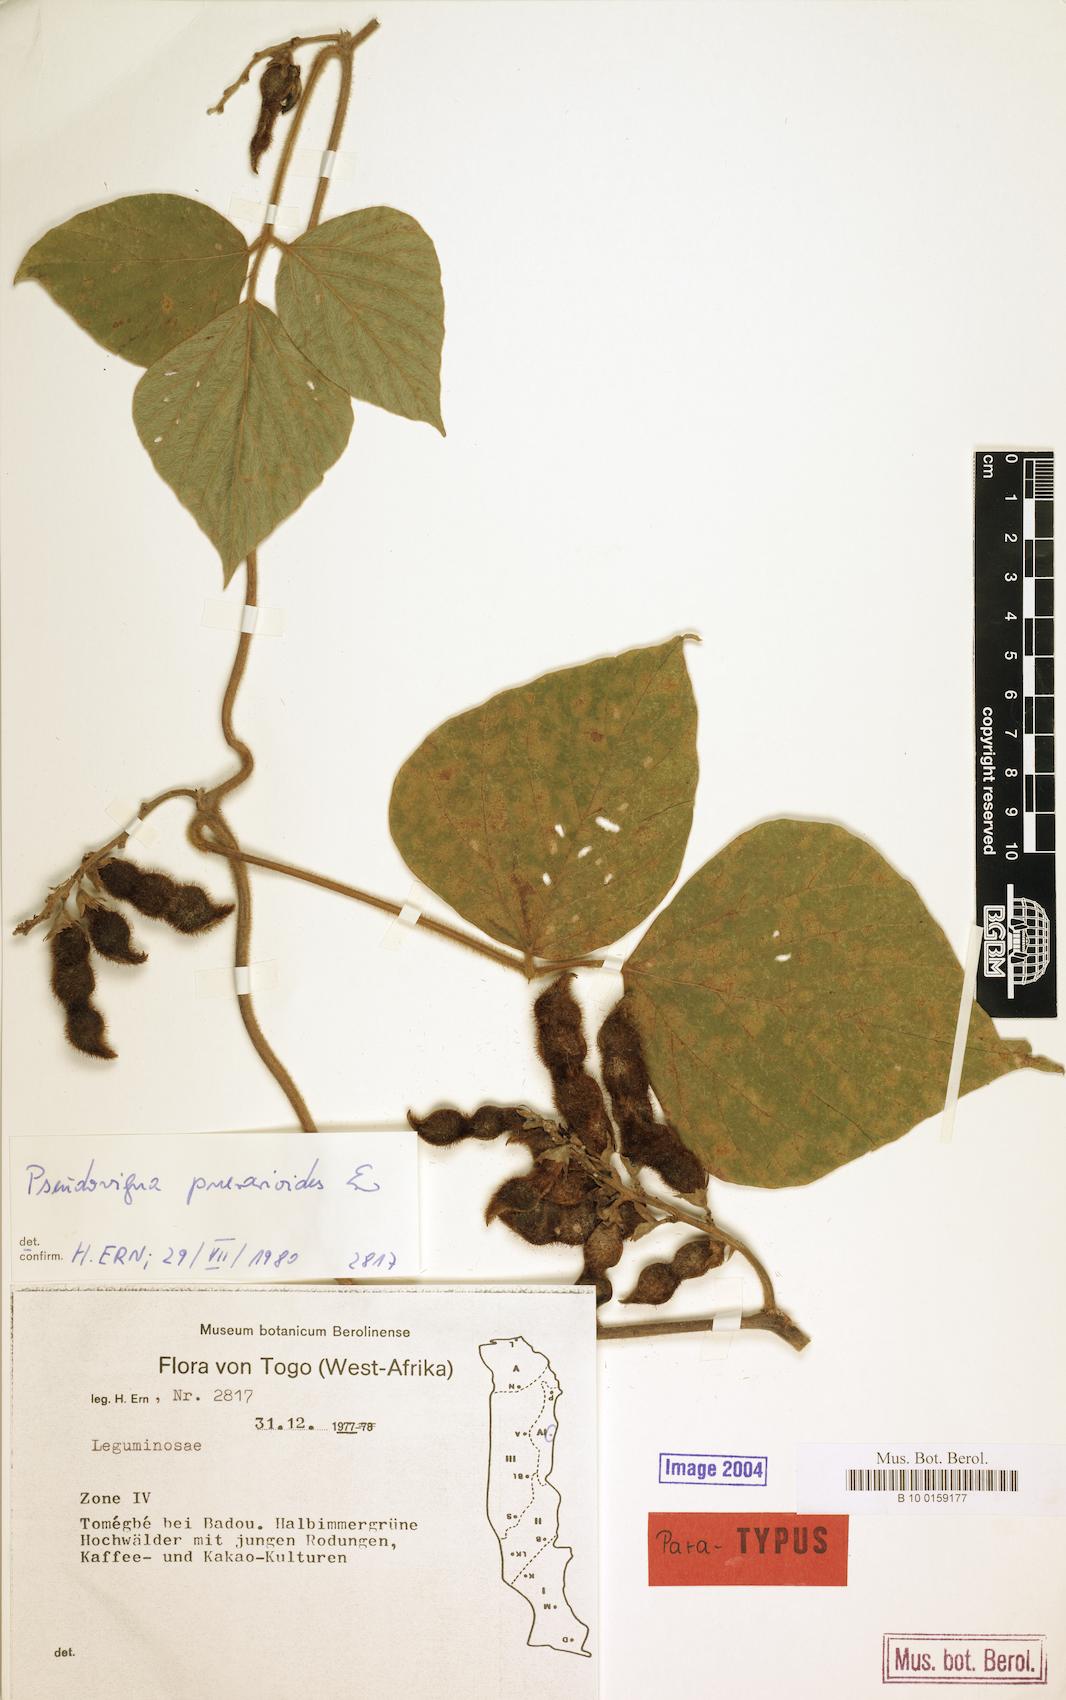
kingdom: Plantae
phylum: Tracheophyta
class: Magnoliopsida
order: Fabales
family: Fabaceae
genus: Pseudovigna
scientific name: Pseudovigna puerarioides
